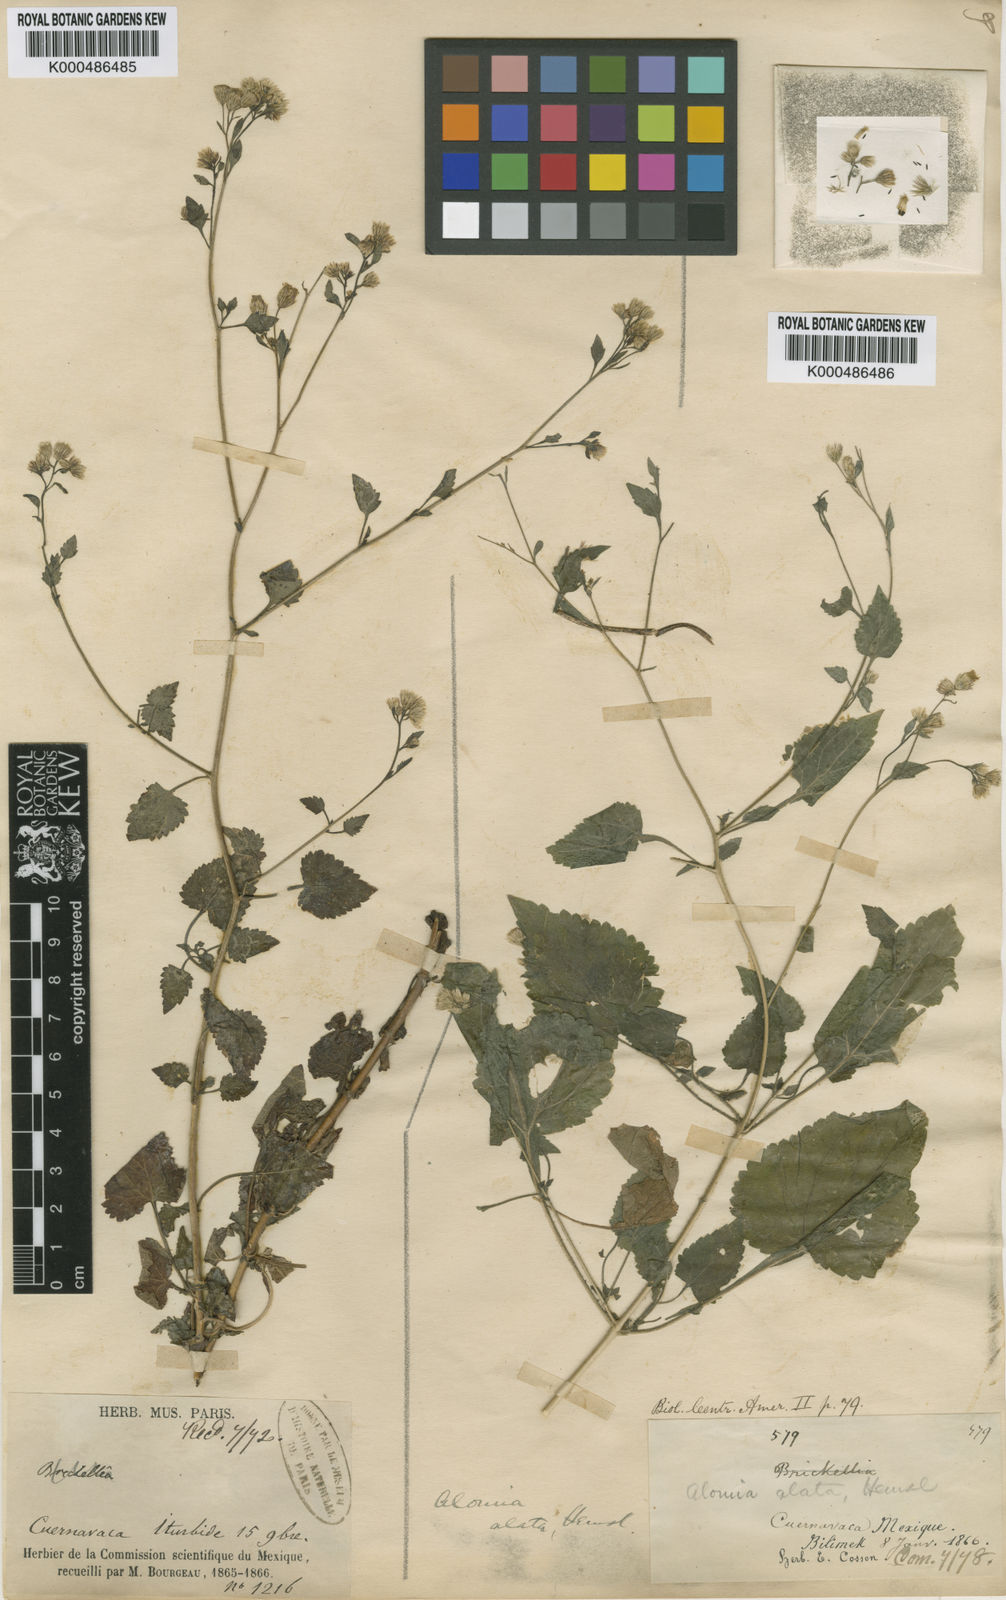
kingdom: Plantae
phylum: Tracheophyta
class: Magnoliopsida
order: Asterales
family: Asteraceae
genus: Alomia
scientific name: Alomia alata
